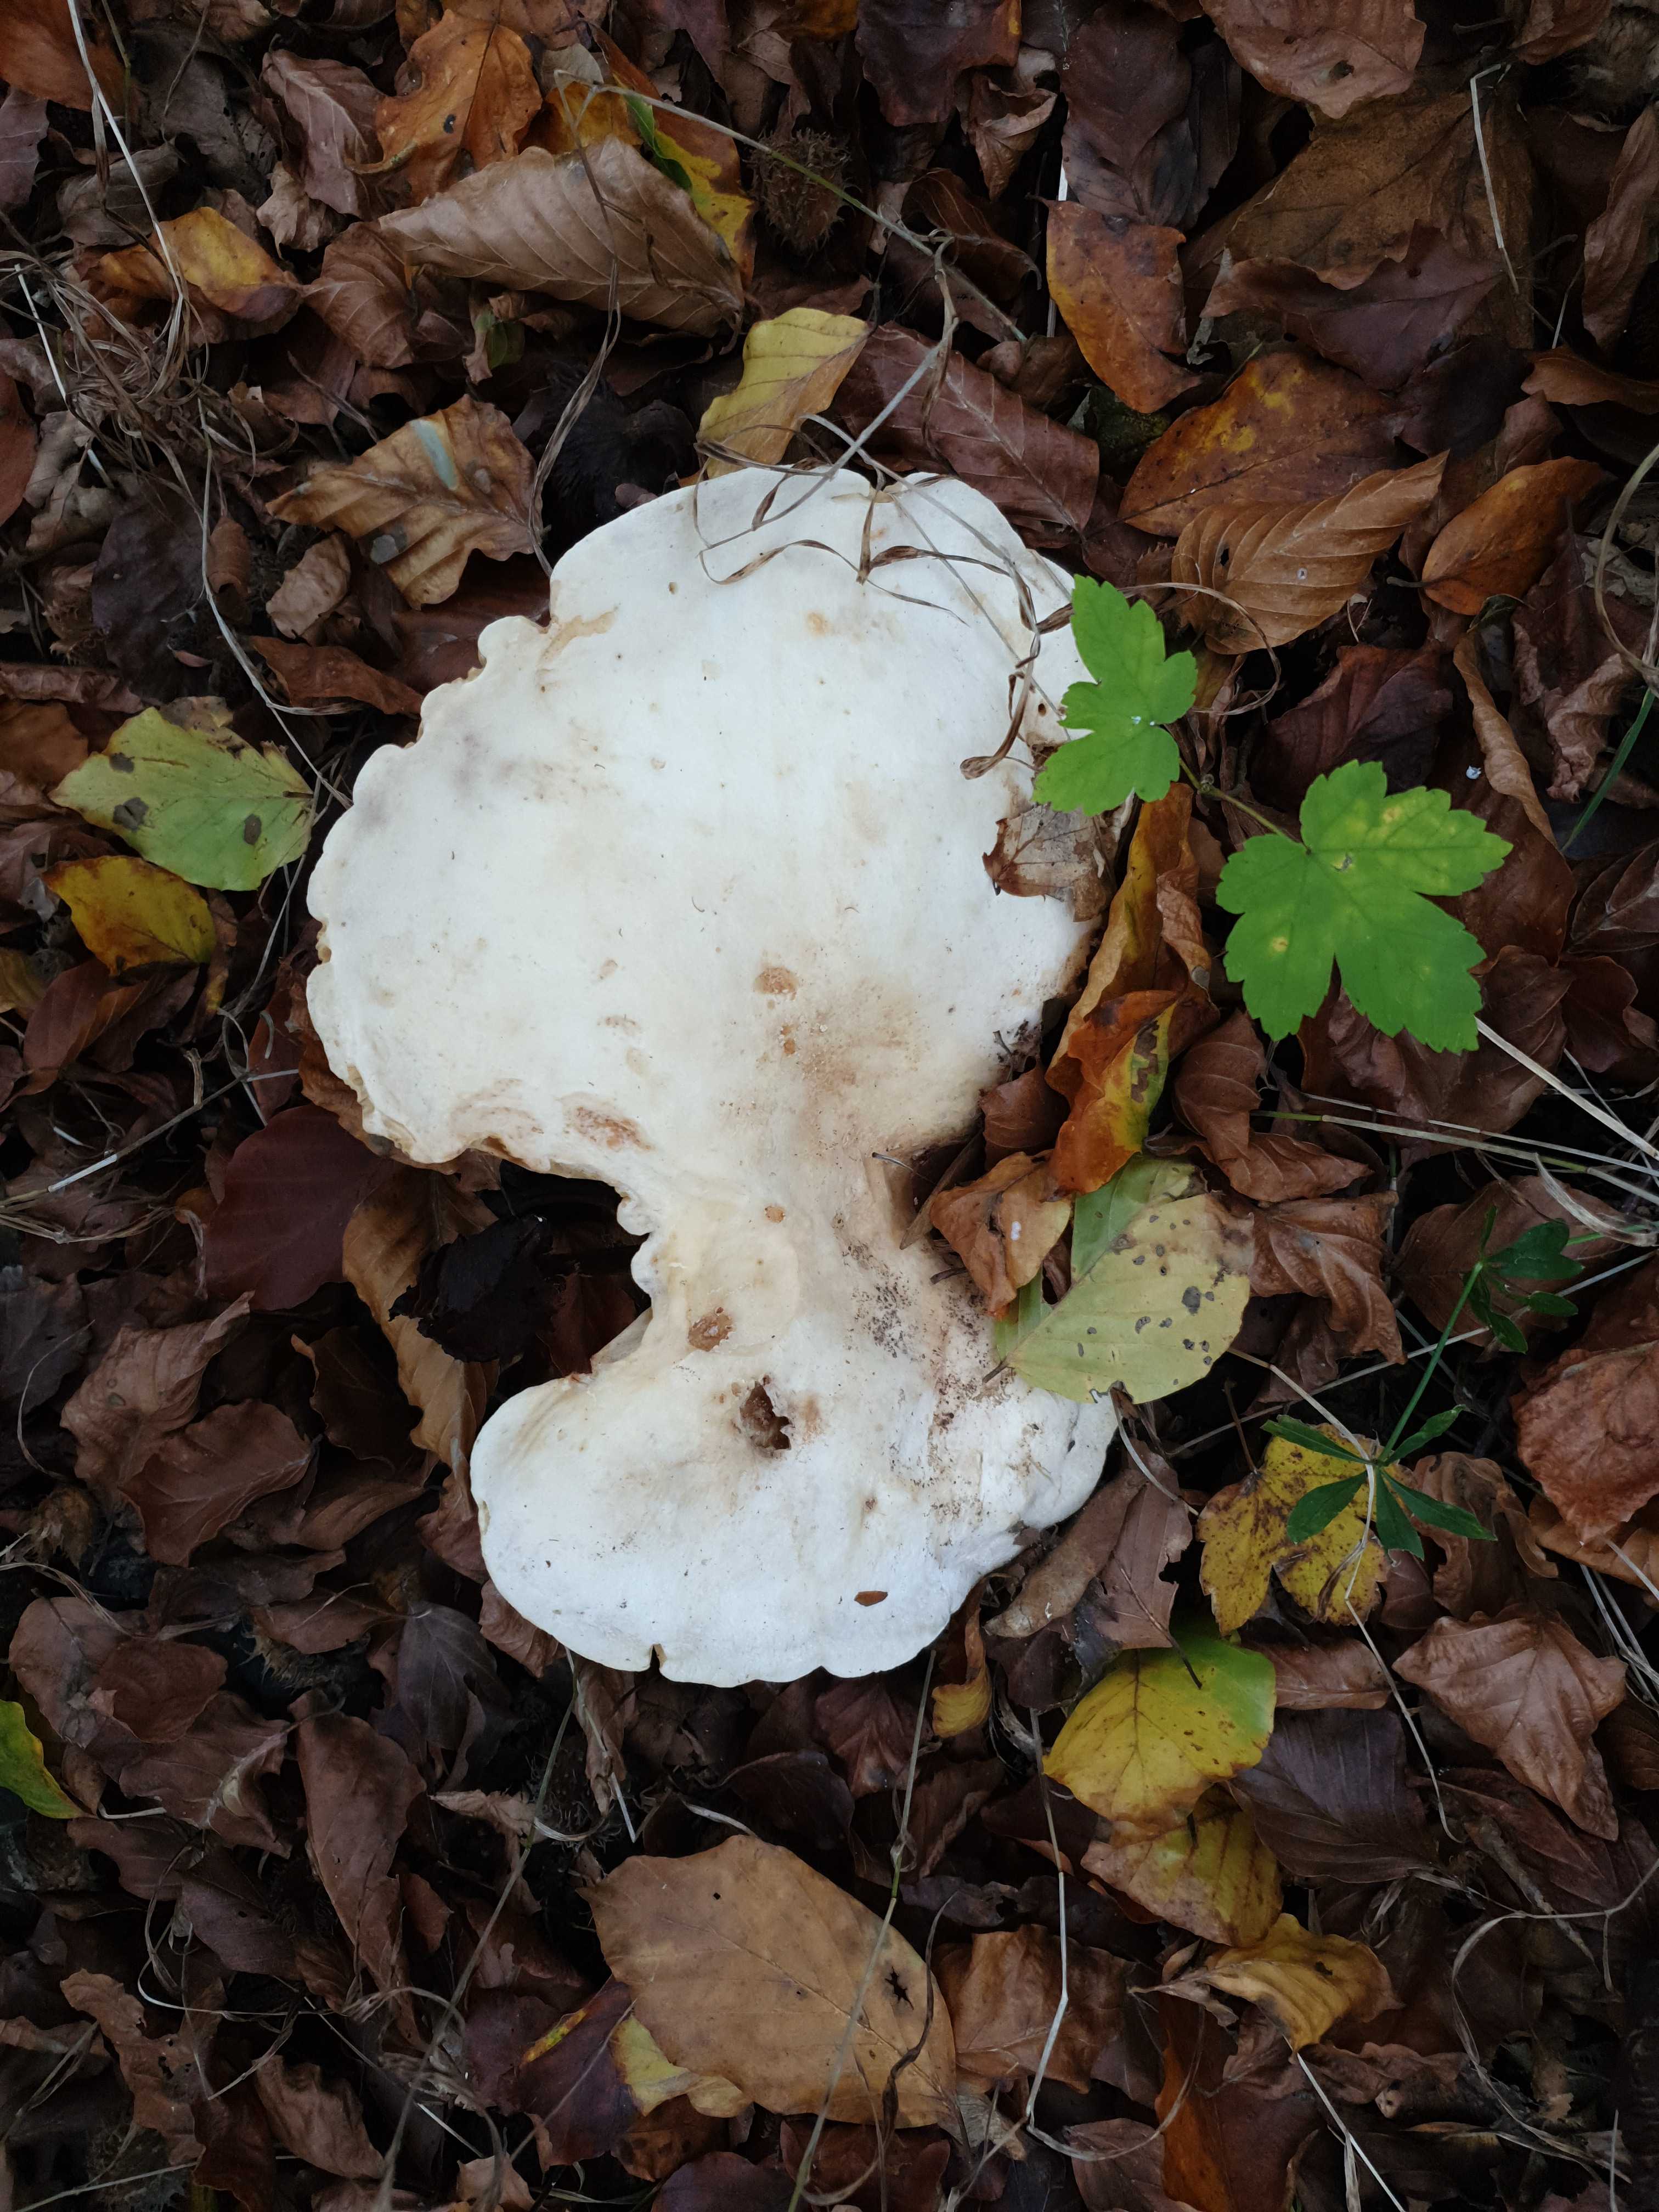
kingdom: Fungi
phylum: Basidiomycota
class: Agaricomycetes
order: Agaricales
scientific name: Agaricales
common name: champignonordenen
